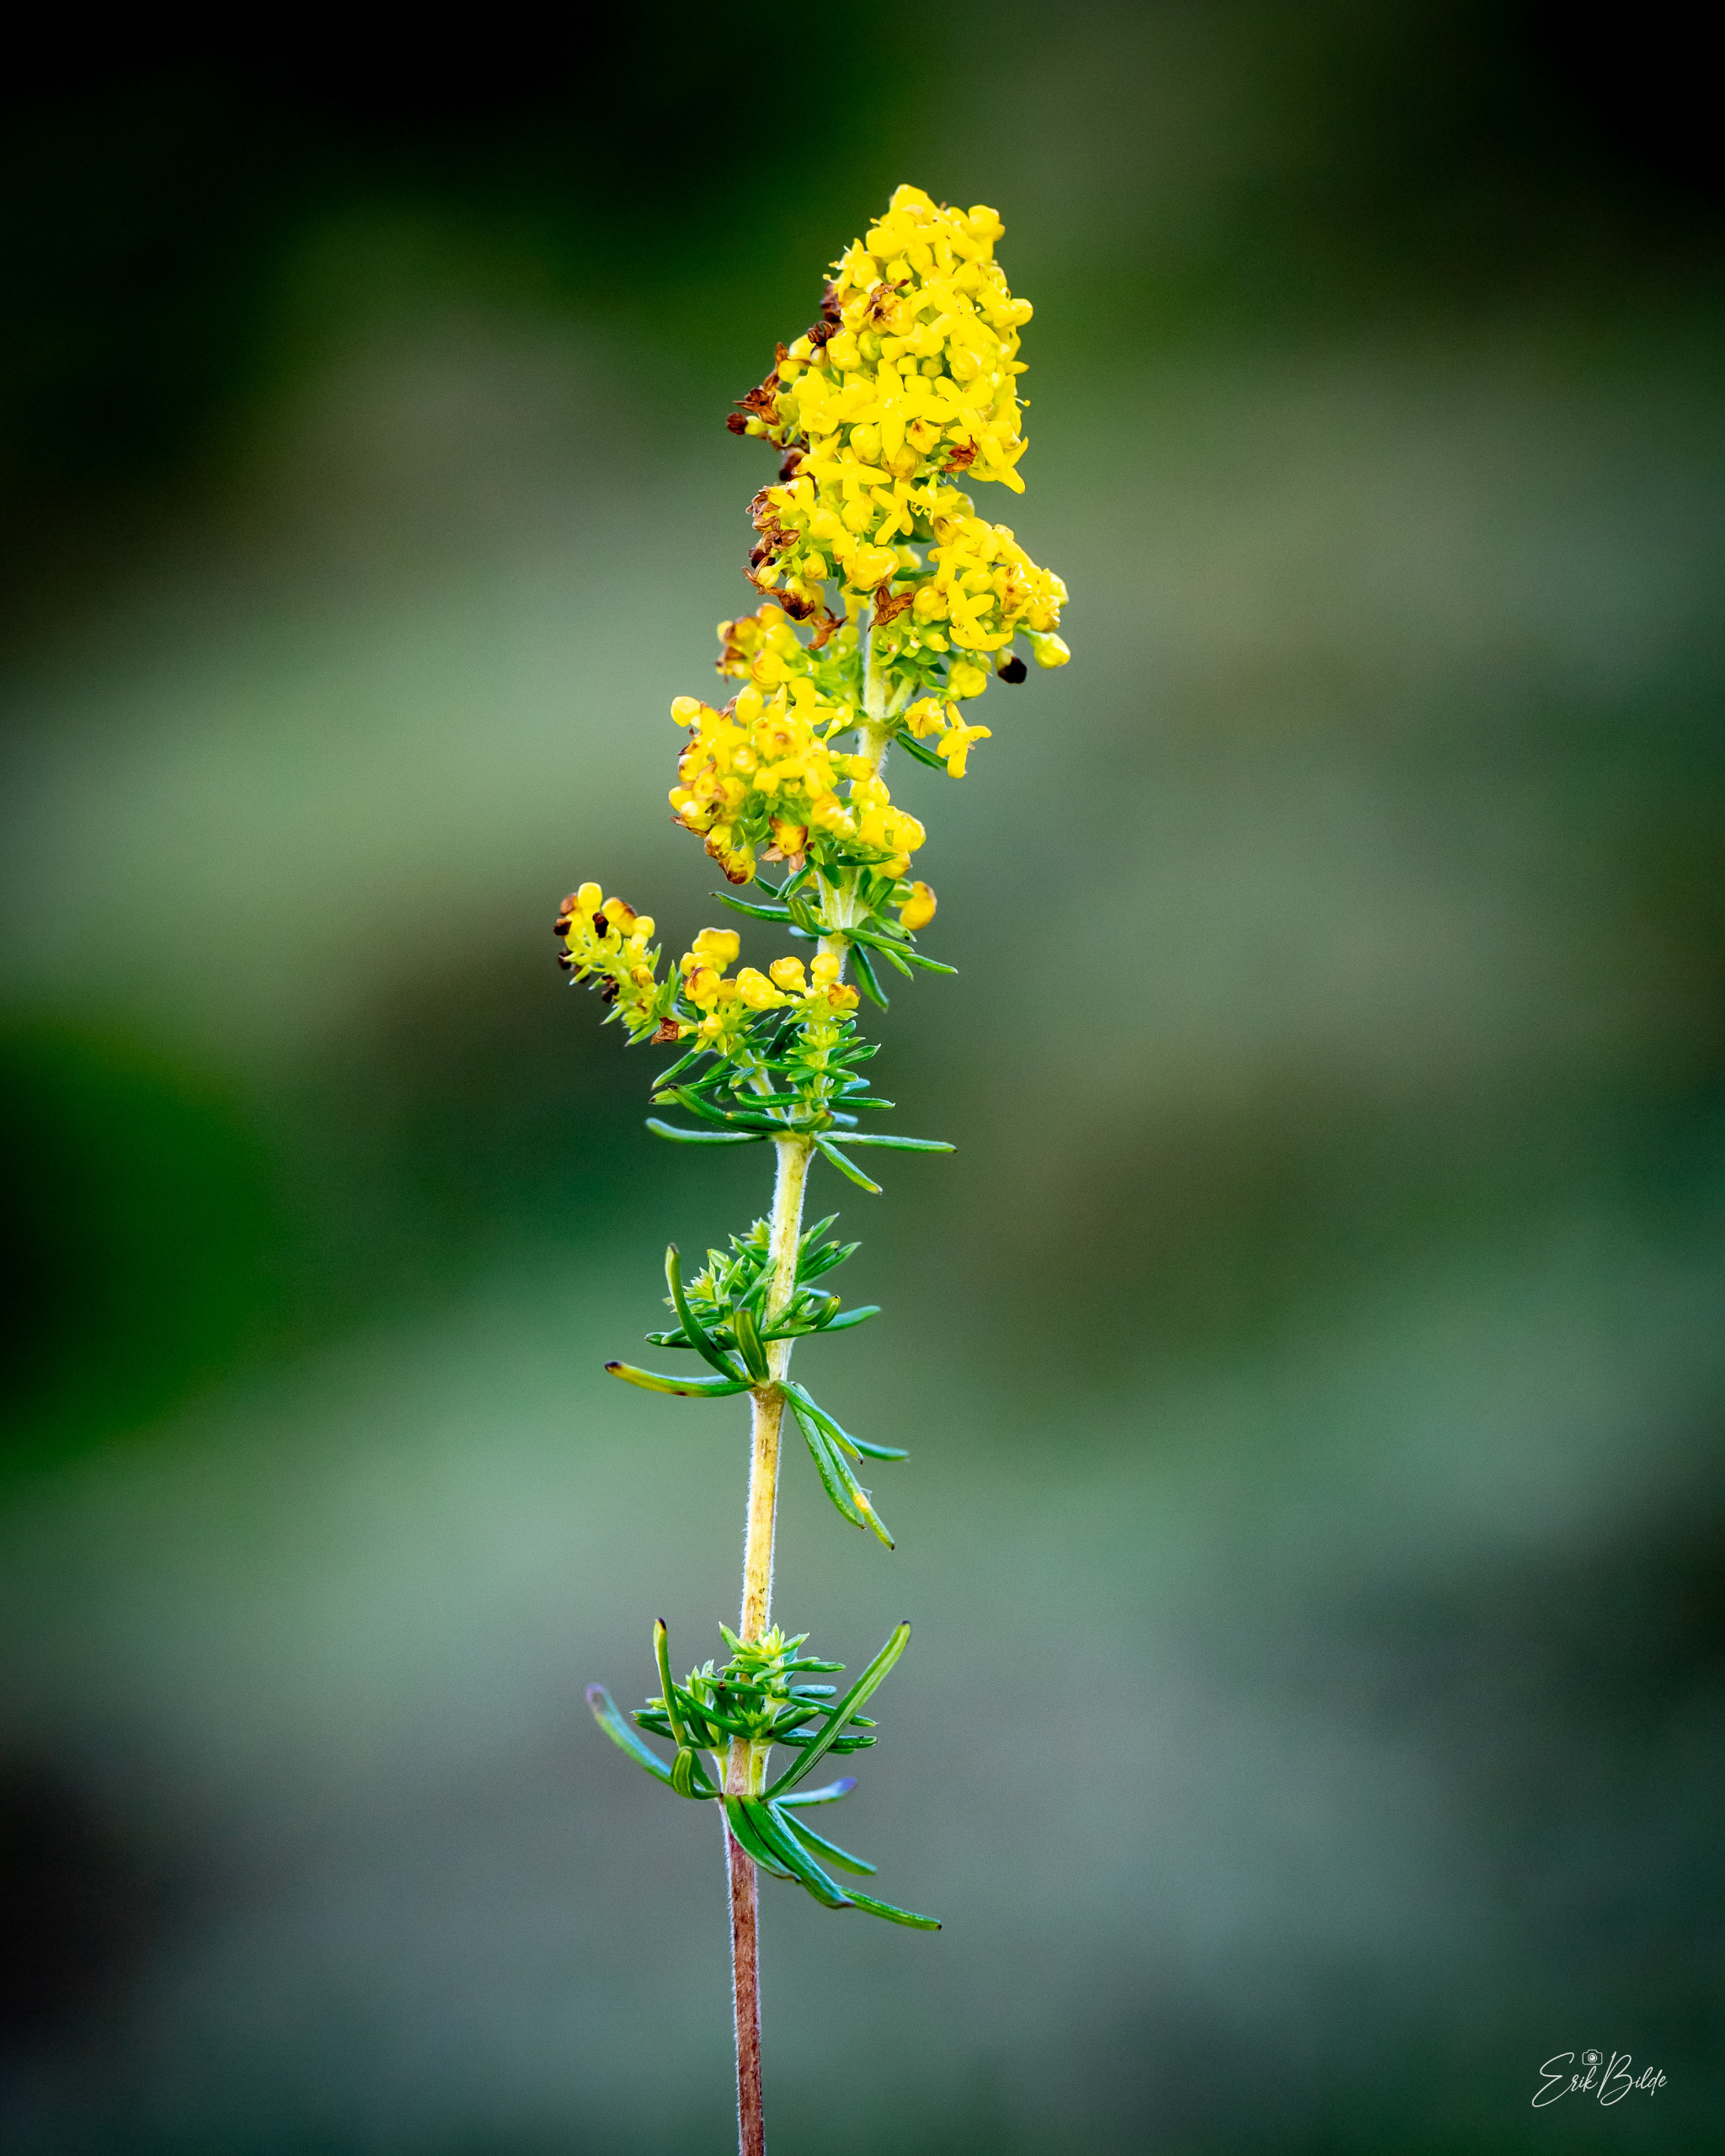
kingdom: Plantae
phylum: Tracheophyta
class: Magnoliopsida
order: Gentianales
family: Rubiaceae
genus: Galium
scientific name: Galium verum
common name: Gul snerre
